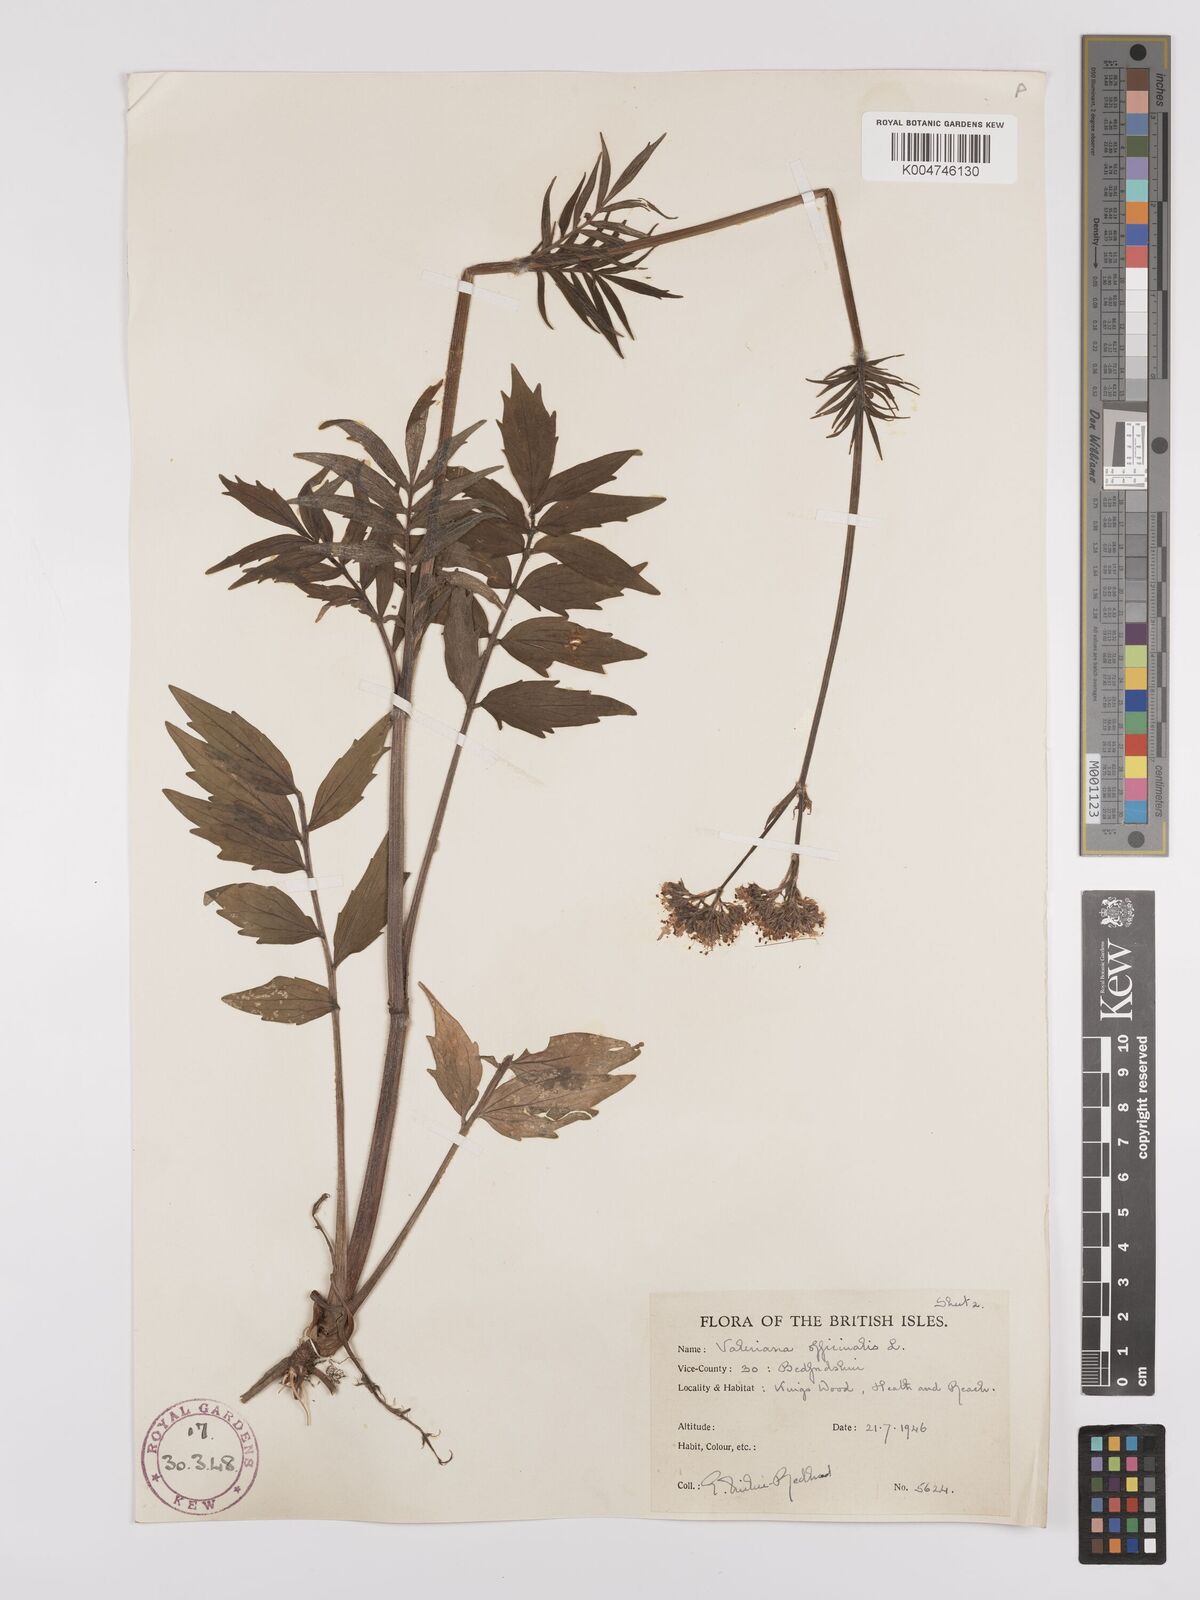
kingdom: Plantae
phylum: Tracheophyta
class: Magnoliopsida
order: Dipsacales
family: Caprifoliaceae
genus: Valeriana
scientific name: Valeriana excelsa
